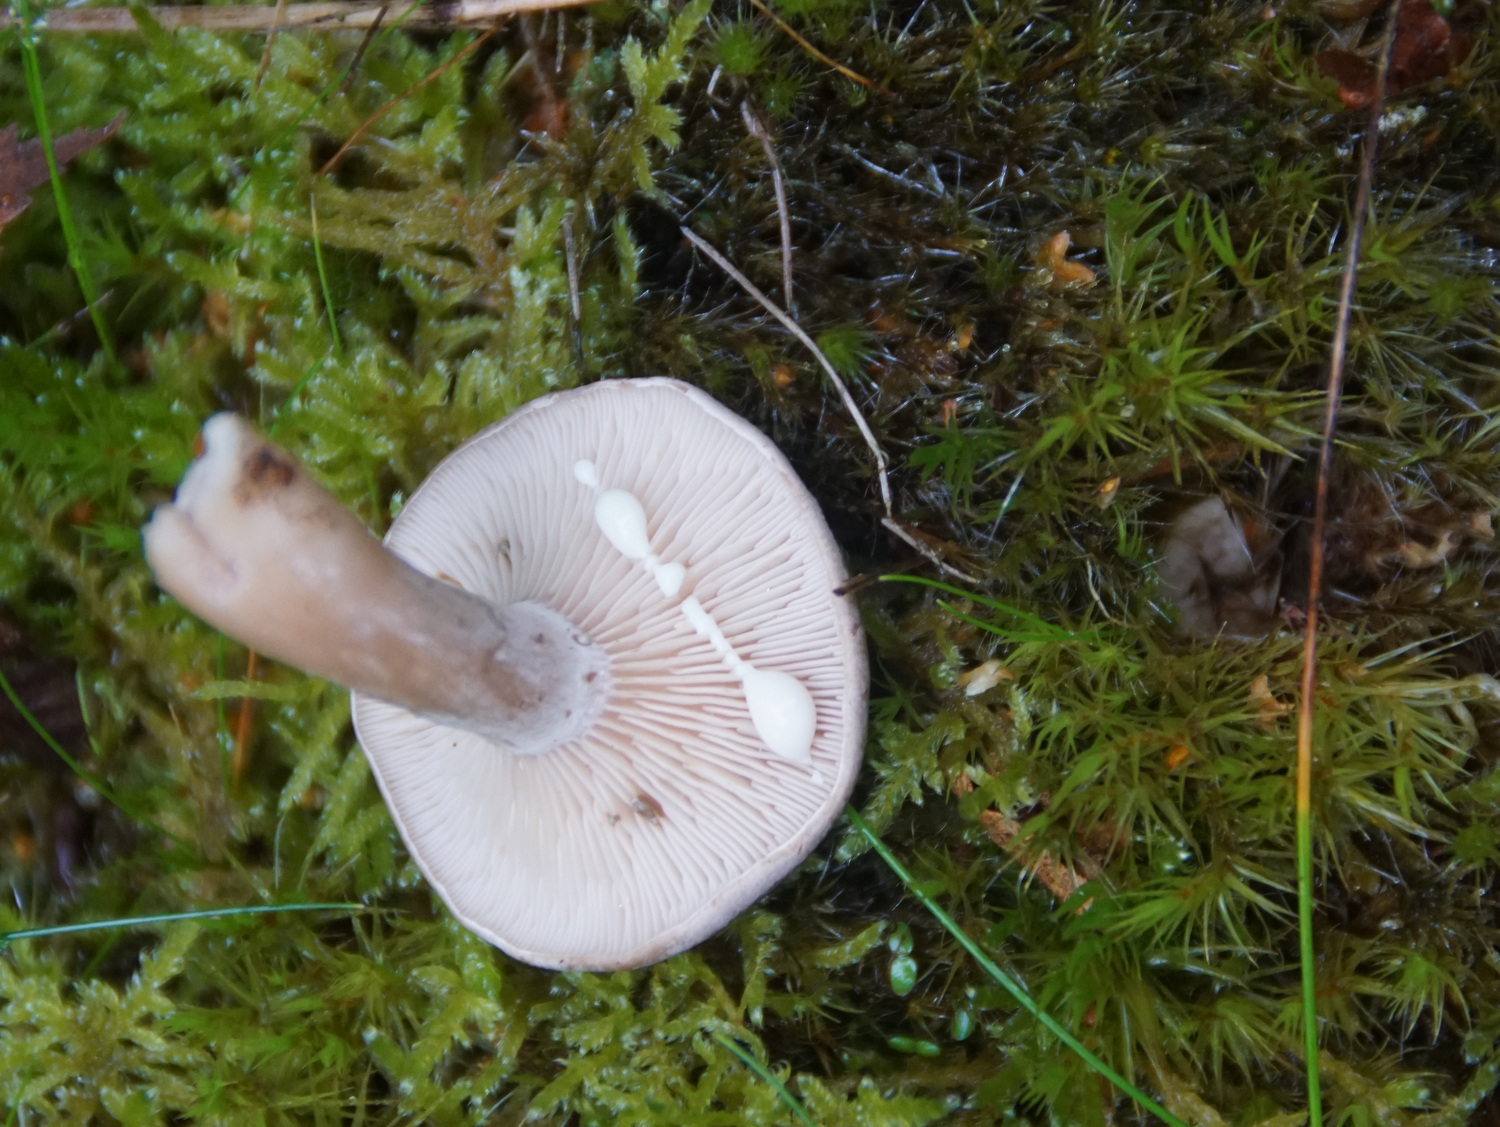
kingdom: Fungi
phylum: Basidiomycota
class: Agaricomycetes
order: Russulales
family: Russulaceae
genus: Lactarius
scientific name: Lactarius vietus
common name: violetgrå mælkehat
